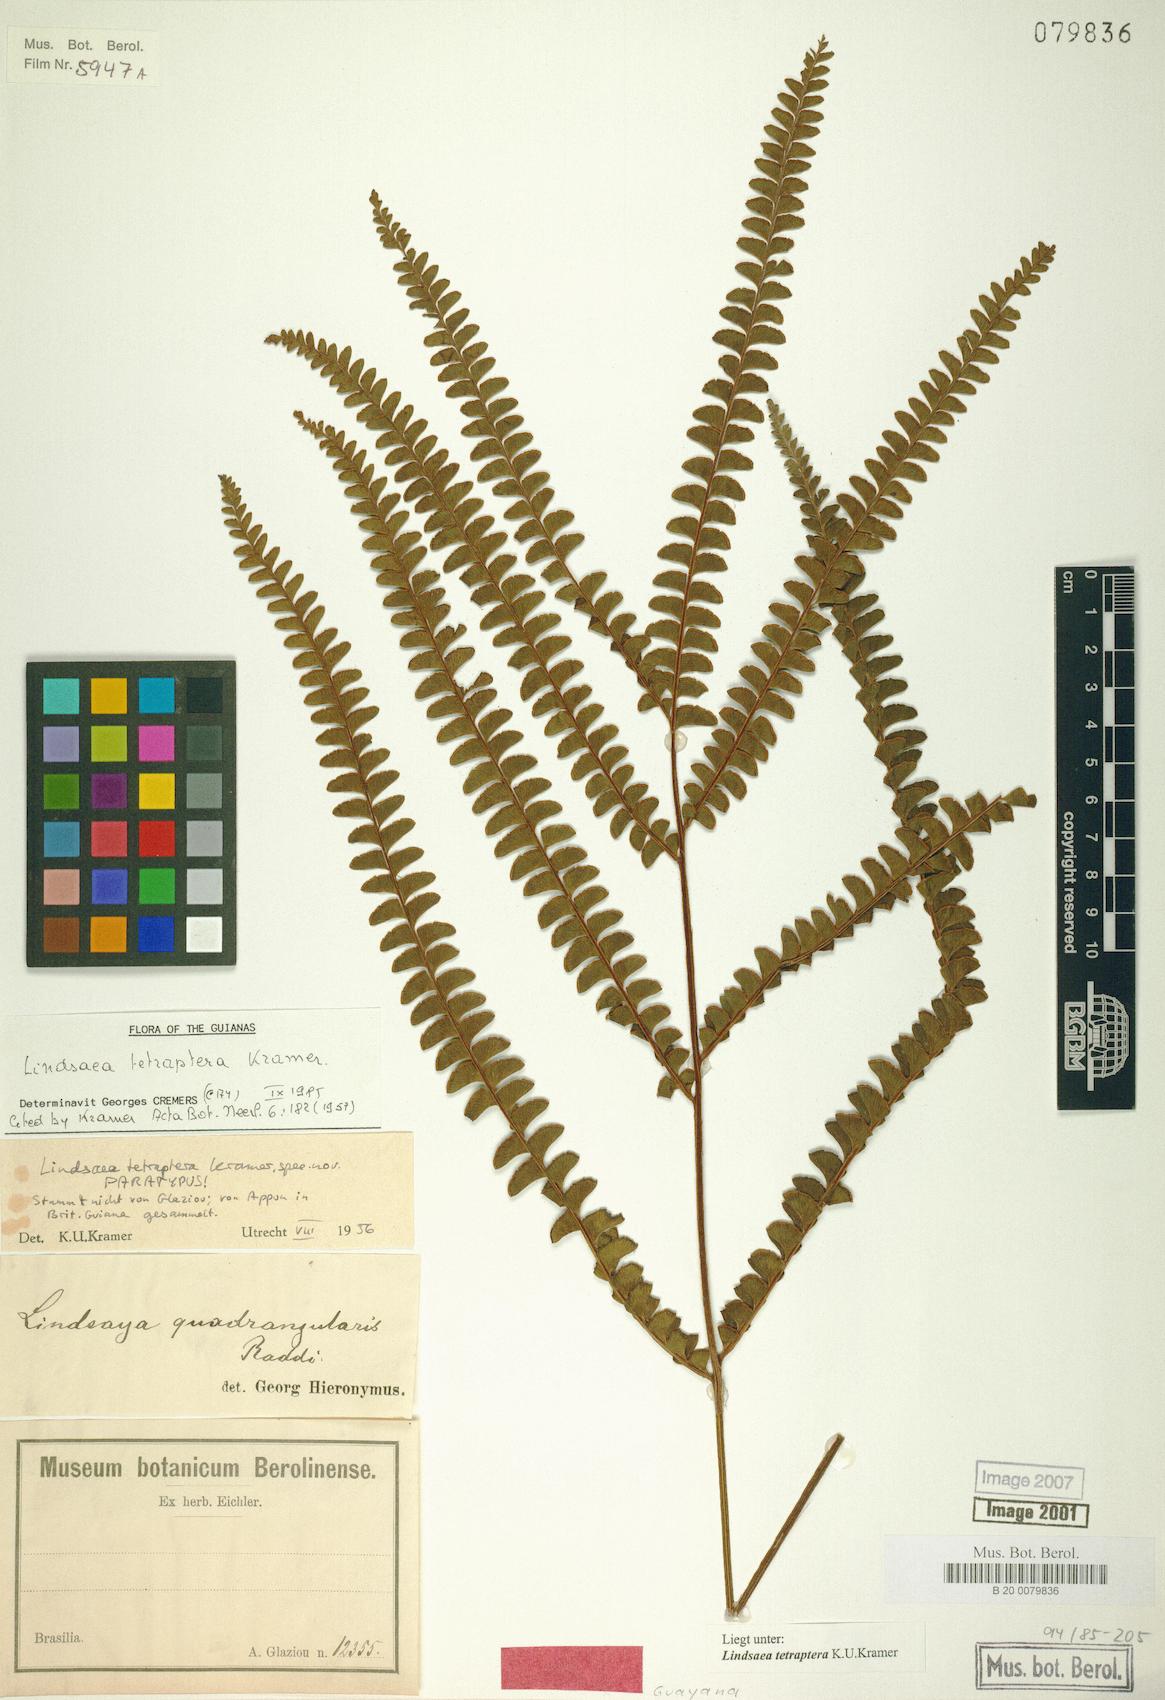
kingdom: Plantae
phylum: Tracheophyta
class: Polypodiopsida
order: Polypodiales
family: Lindsaeaceae
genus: Lindsaea
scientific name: Lindsaea tetraptera
